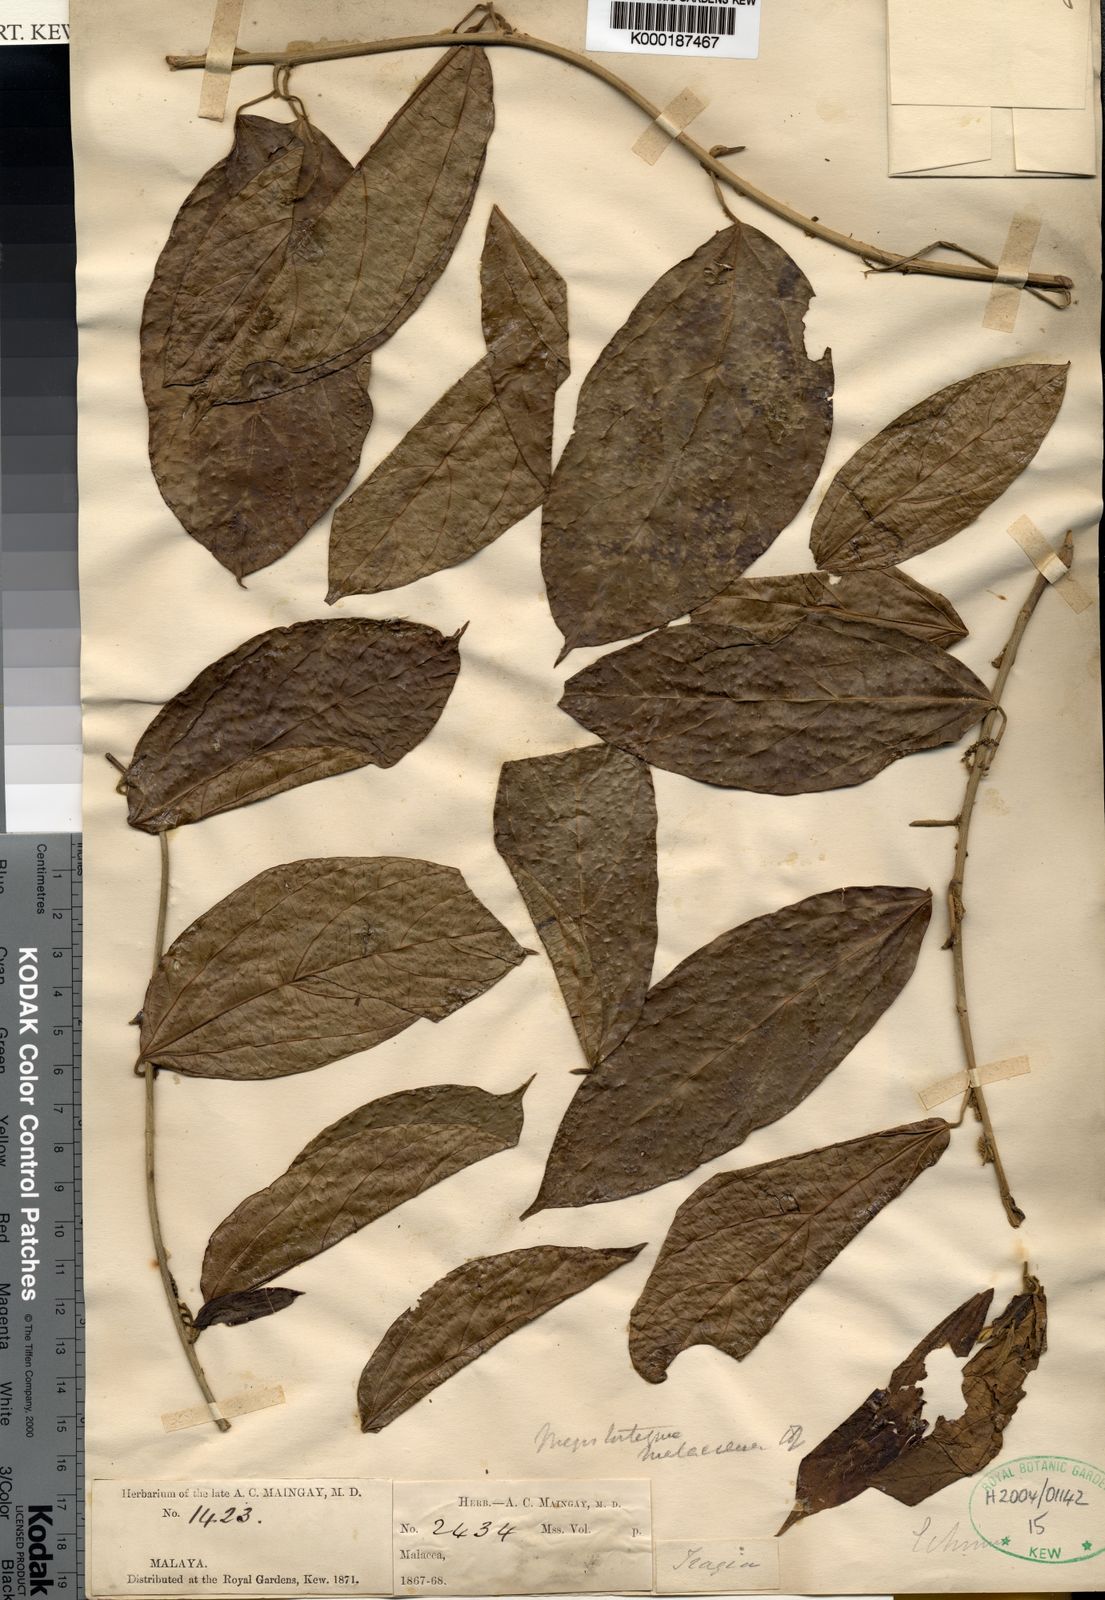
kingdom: Plantae
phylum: Tracheophyta
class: Magnoliopsida
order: Malpighiales
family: Euphorbiaceae
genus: Megistostigma
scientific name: Megistostigma glabratum
